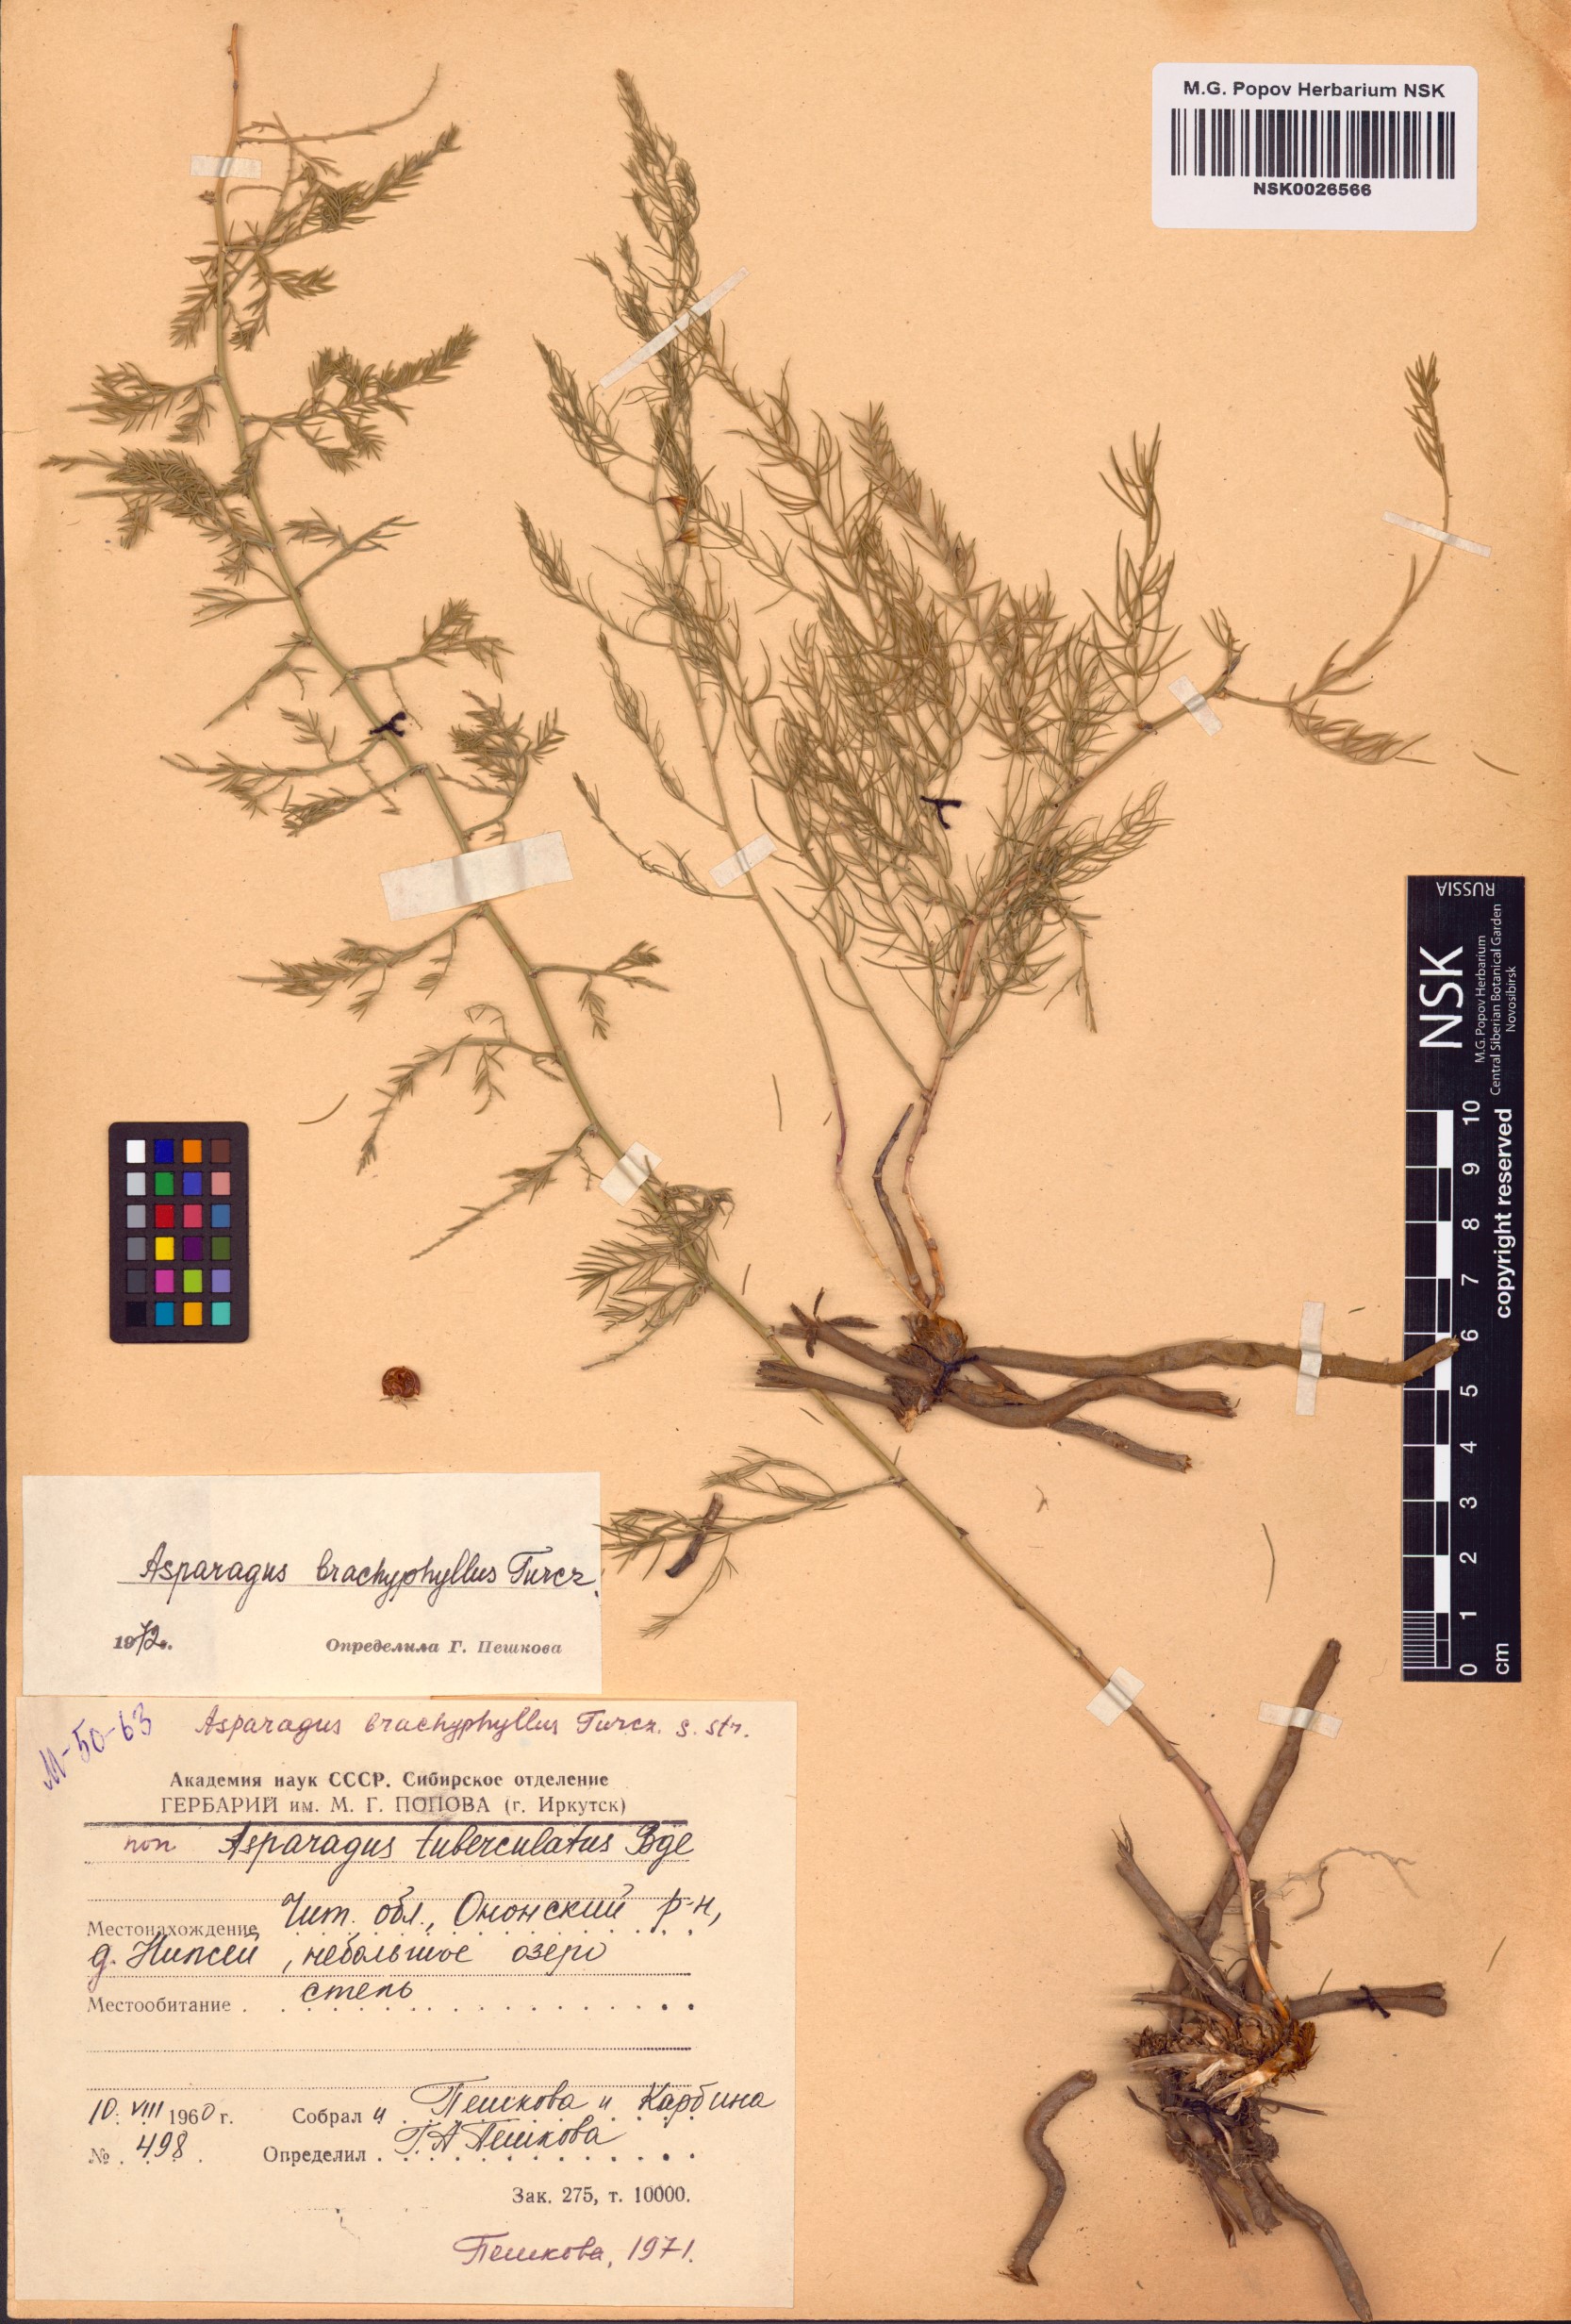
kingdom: Plantae
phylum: Tracheophyta
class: Liliopsida
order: Asparagales
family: Asparagaceae
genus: Asparagus
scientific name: Asparagus brachyphyllus
